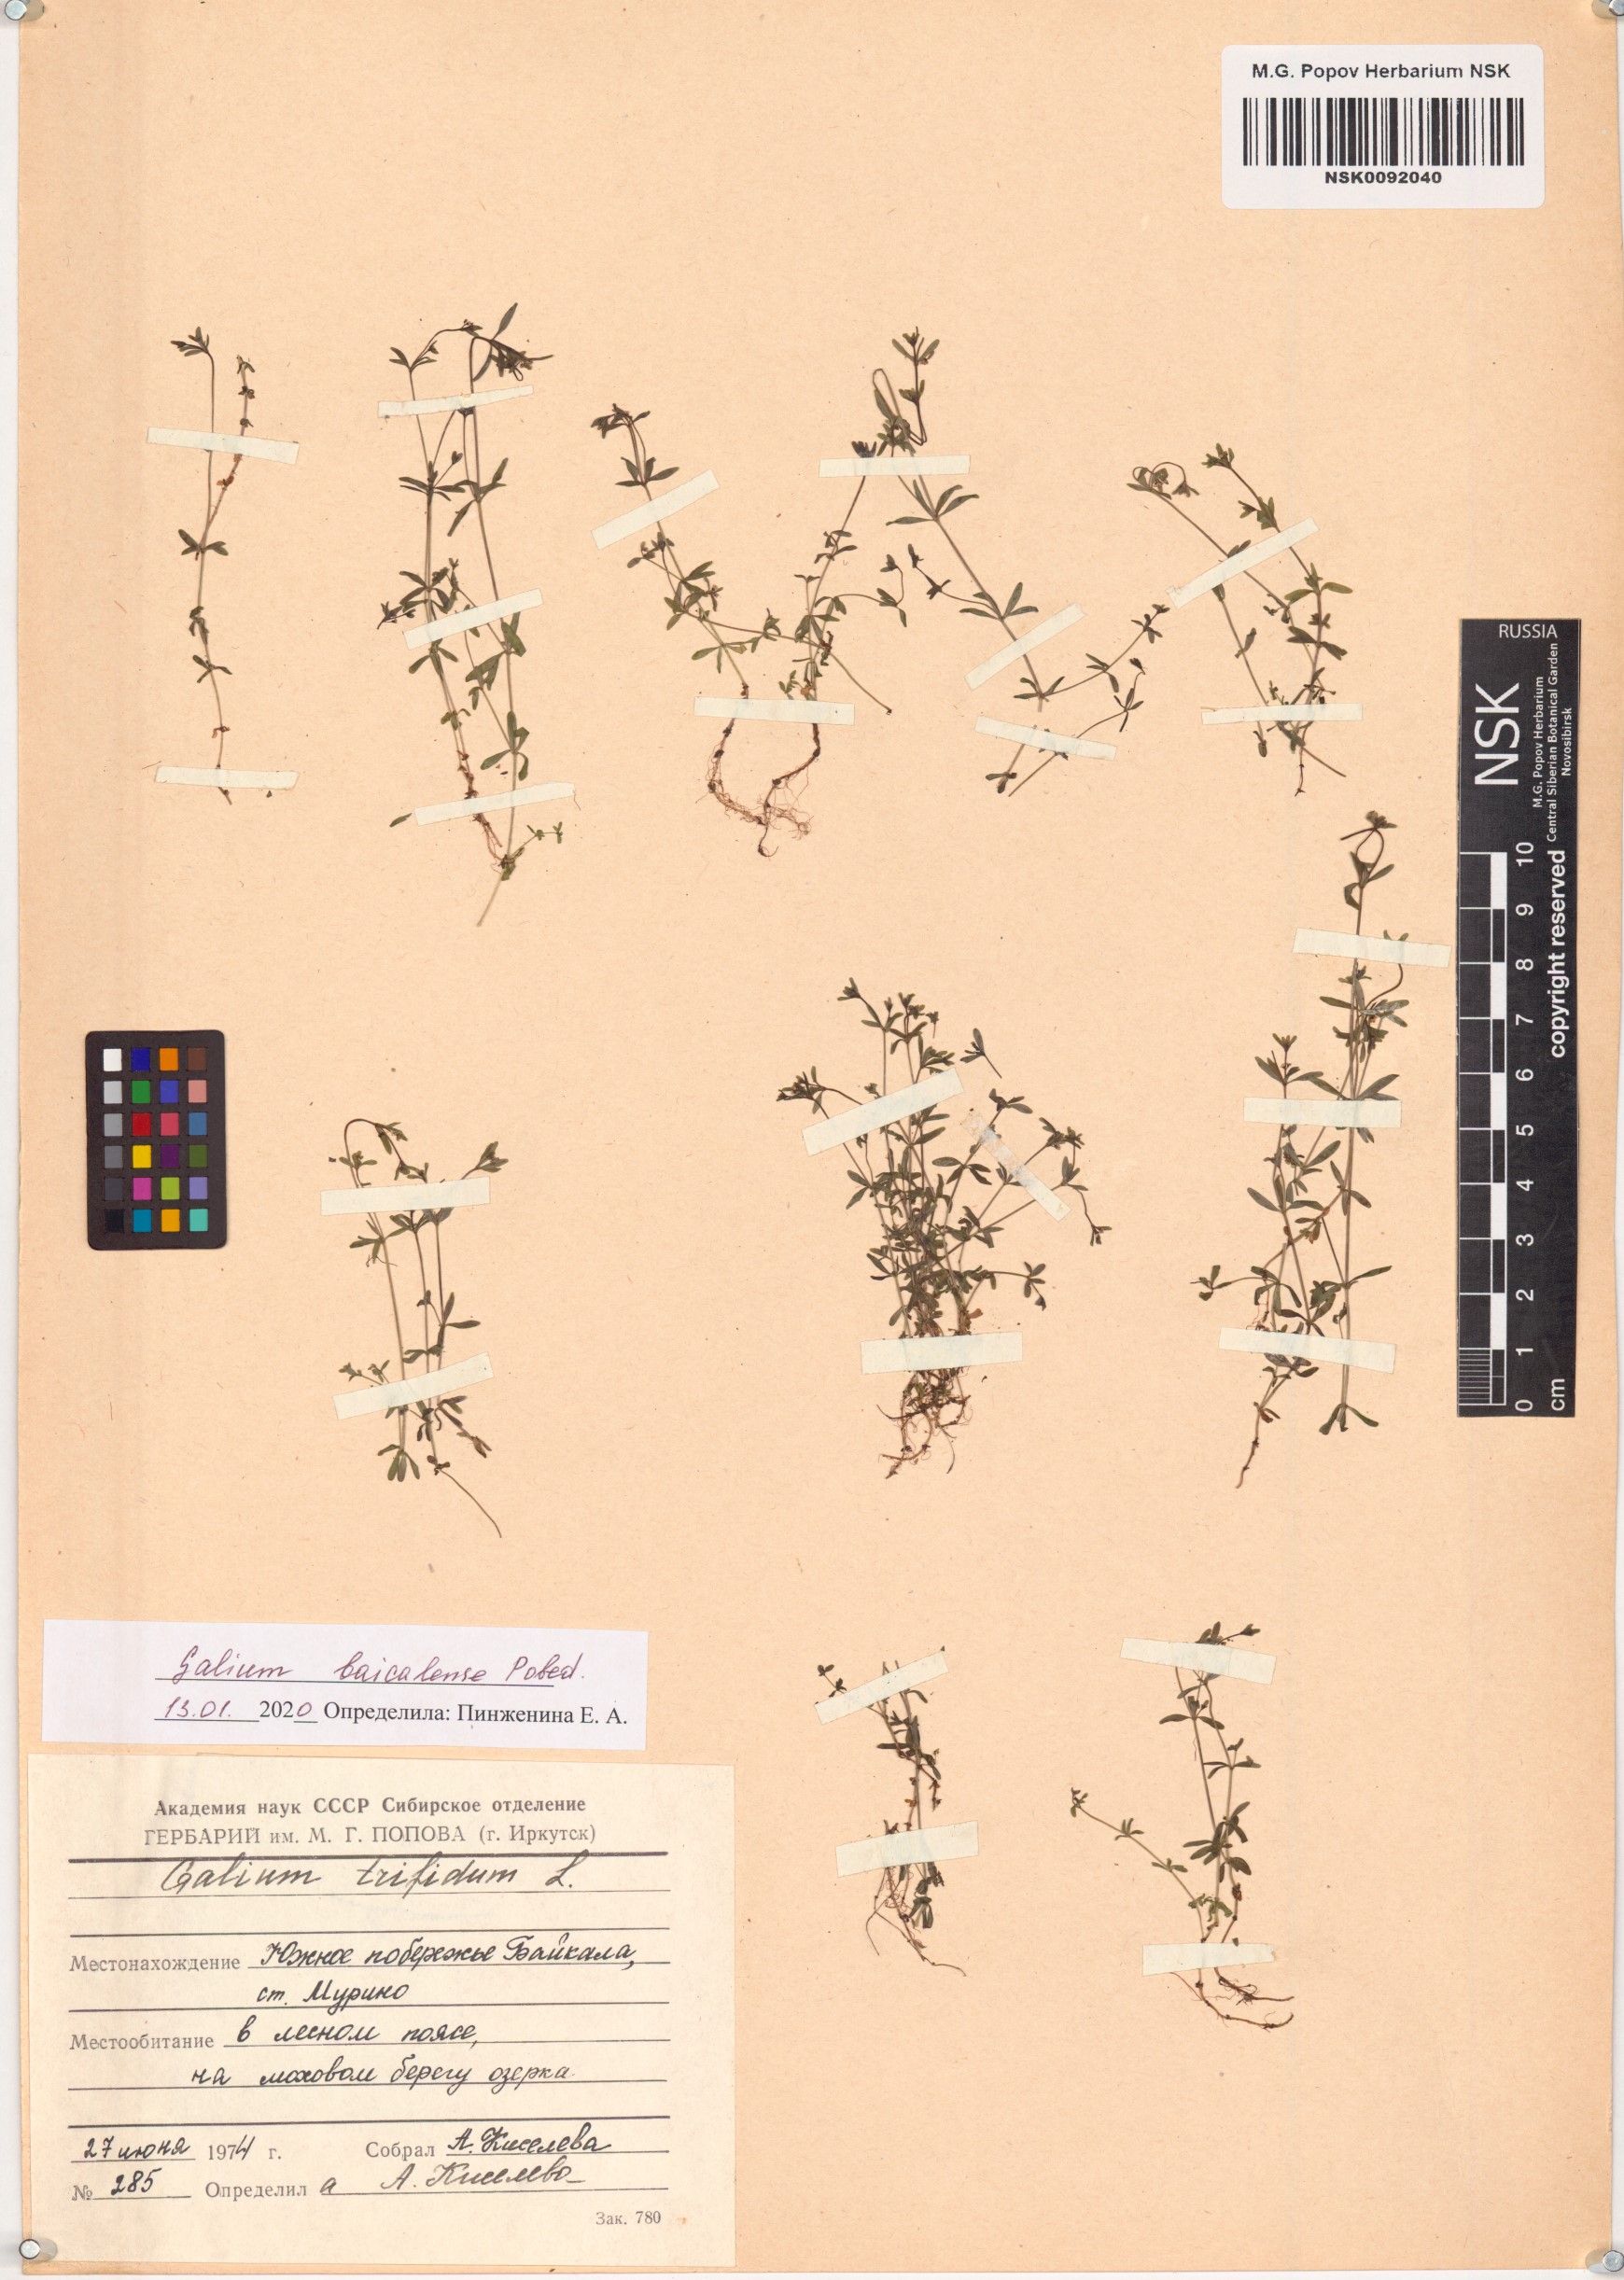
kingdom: Plantae
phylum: Tracheophyta
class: Magnoliopsida
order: Gentianales
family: Rubiaceae
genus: Galium
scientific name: Galium trifidum
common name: Small bedstraw
